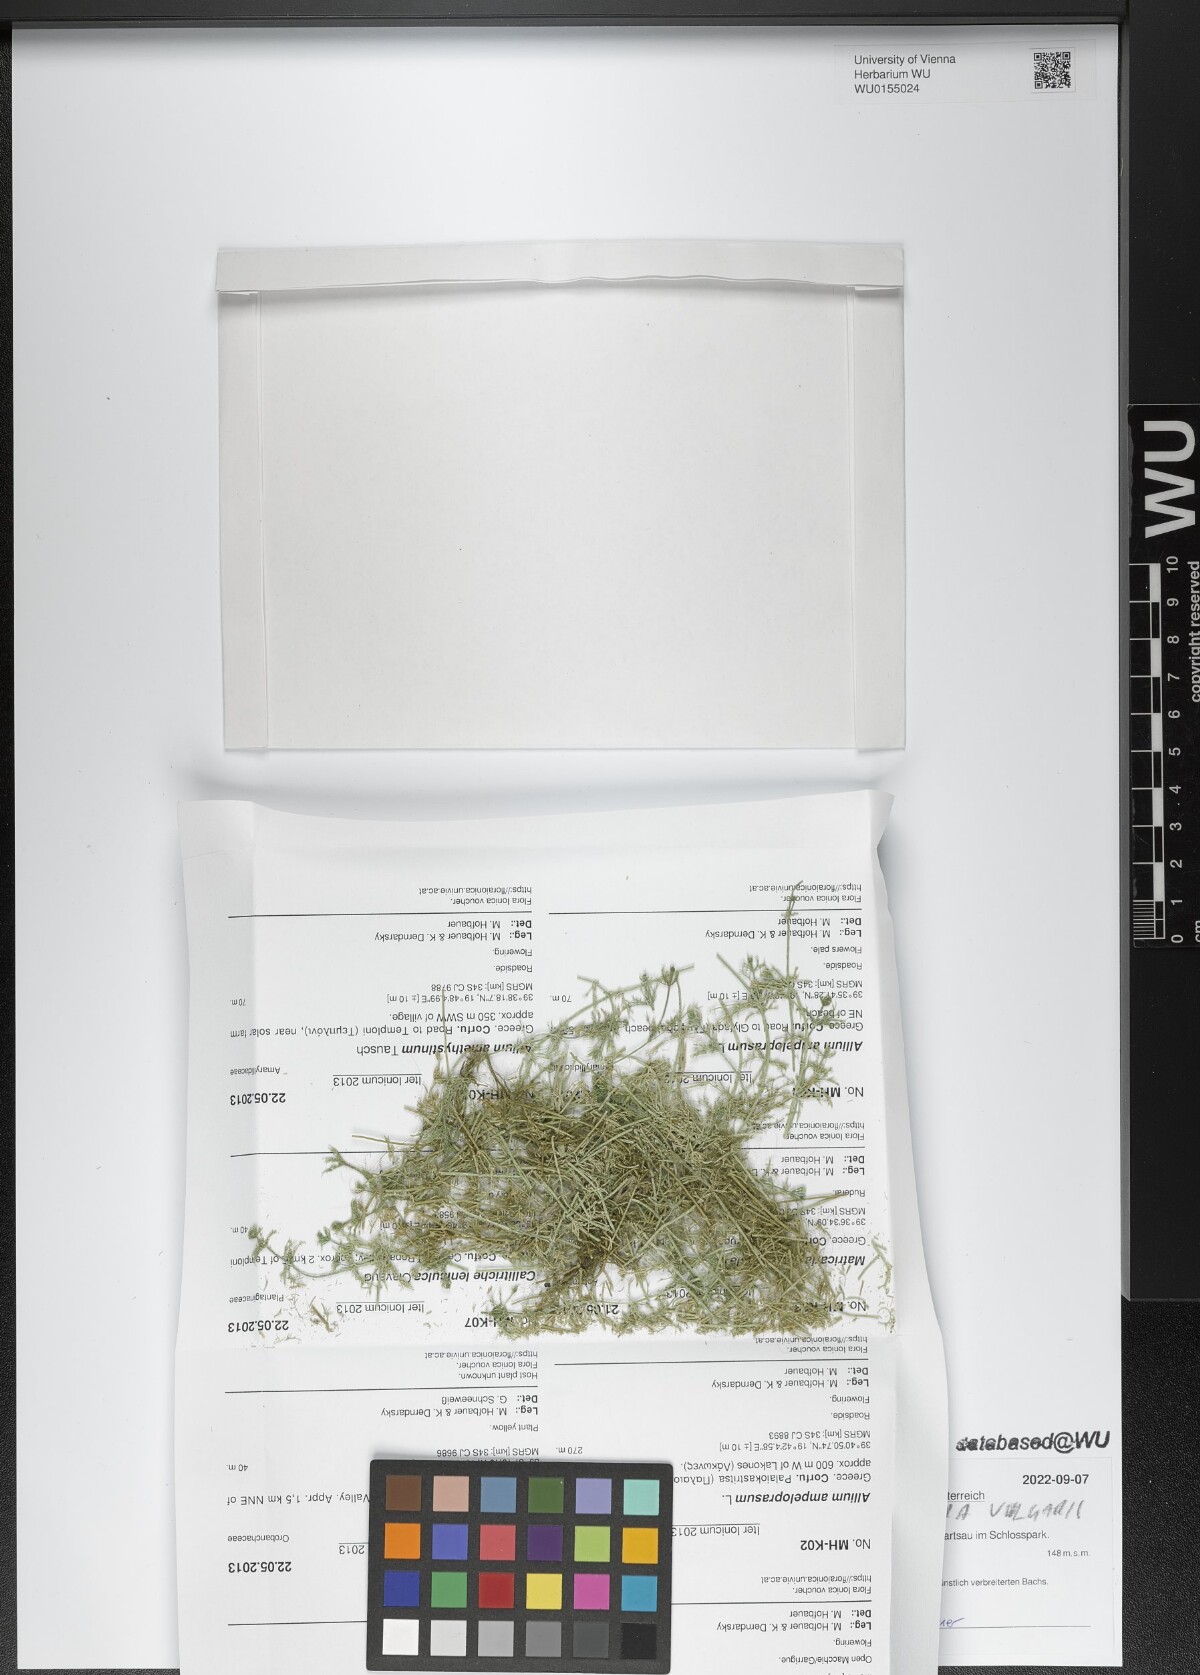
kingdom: Plantae
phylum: Charophyta
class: Charophyceae
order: Charales
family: Characeae
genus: Chara
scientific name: Chara vulgaris
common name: Common stonewort
